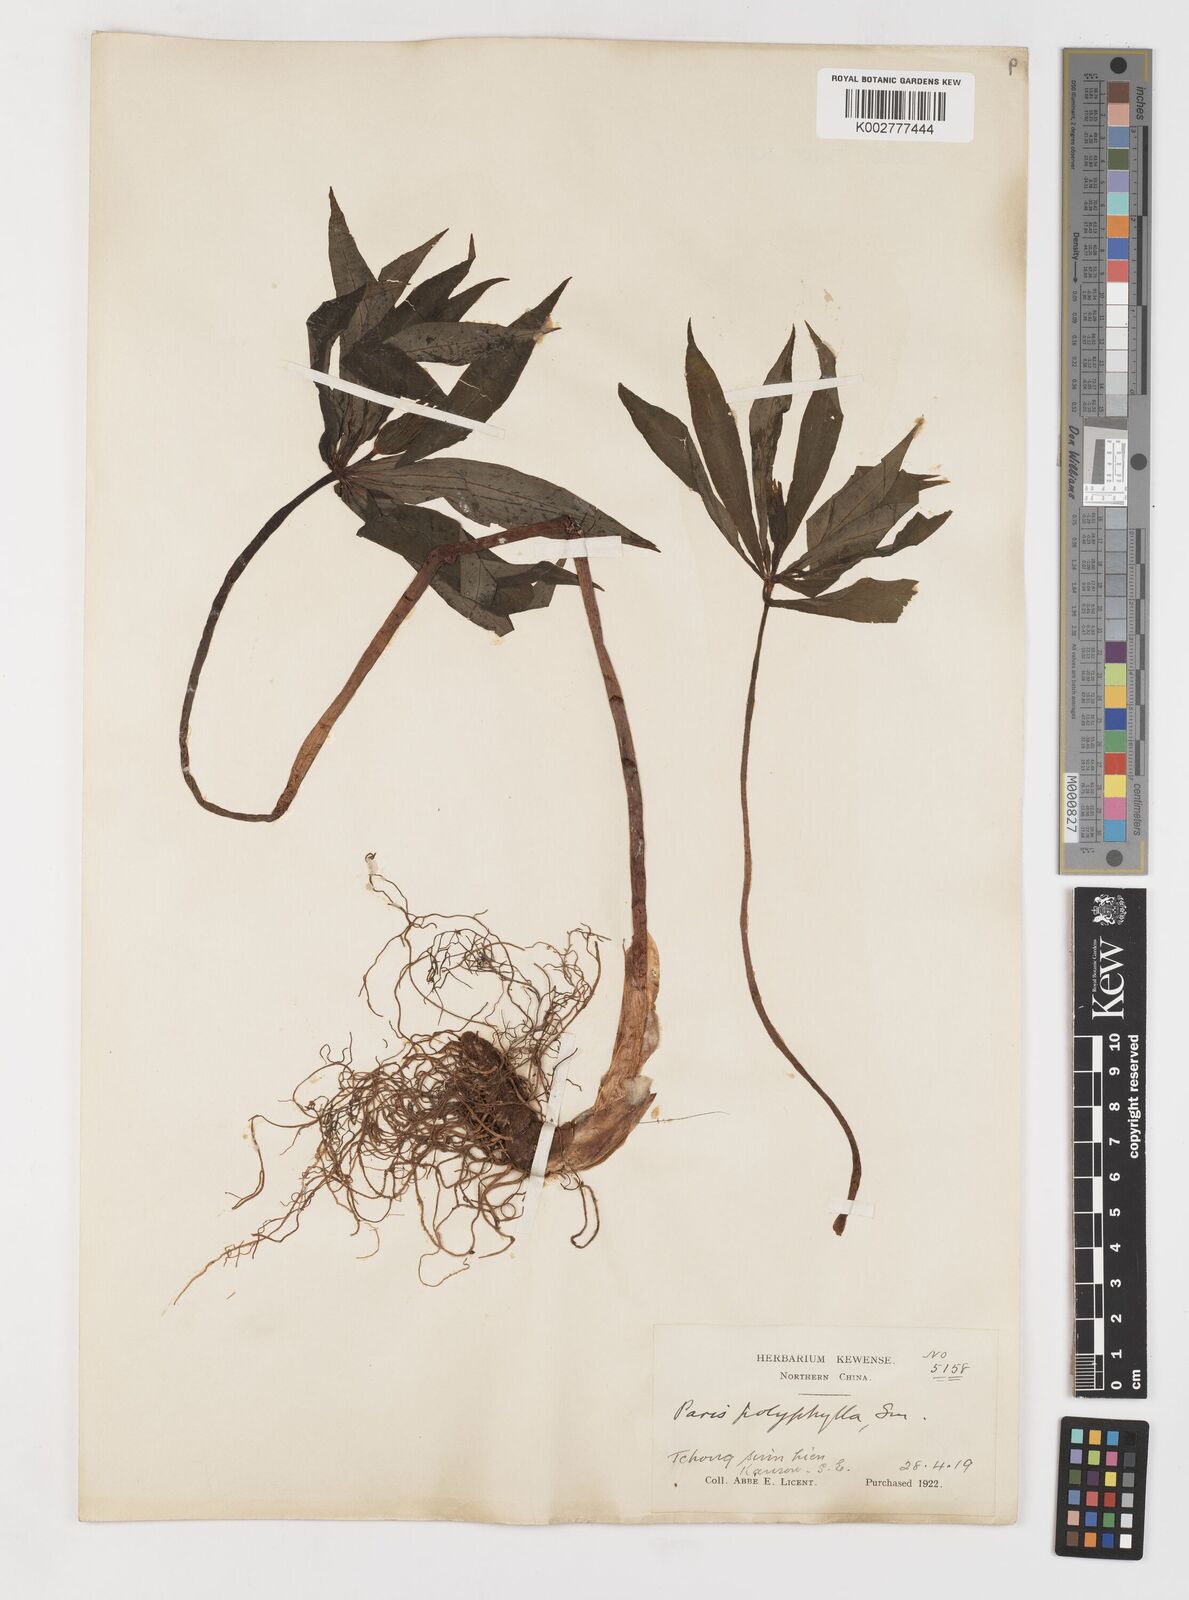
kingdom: Plantae
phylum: Tracheophyta
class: Liliopsida
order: Liliales
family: Melanthiaceae
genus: Paris
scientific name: Paris polyphylla
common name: Love apple
